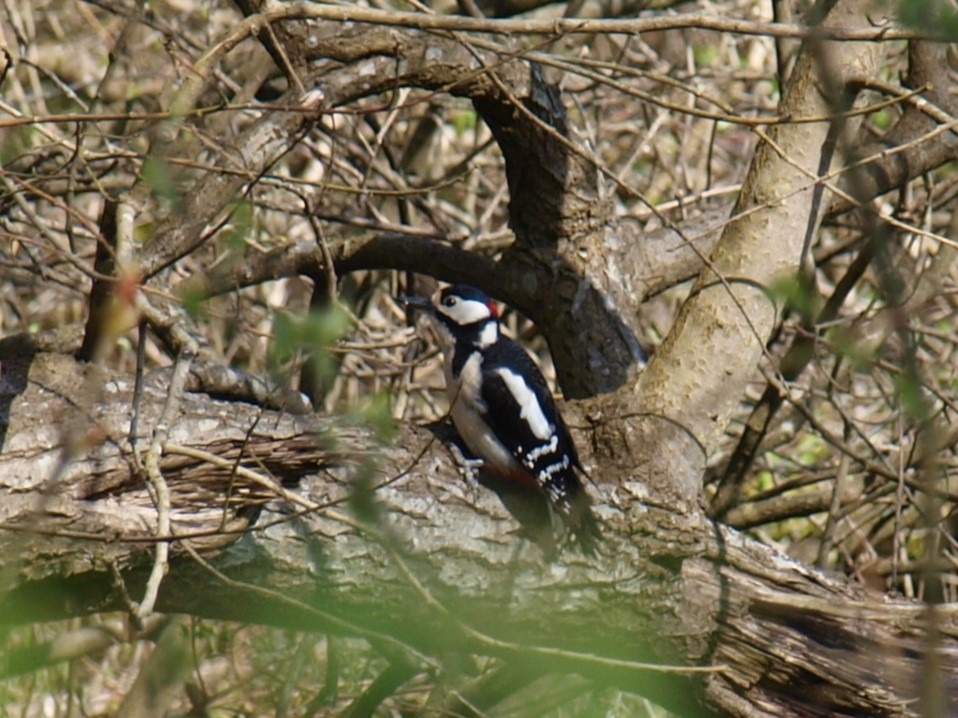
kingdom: Animalia
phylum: Chordata
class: Aves
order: Piciformes
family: Picidae
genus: Dendrocopos
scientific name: Dendrocopos major
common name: Stor flagspætte
